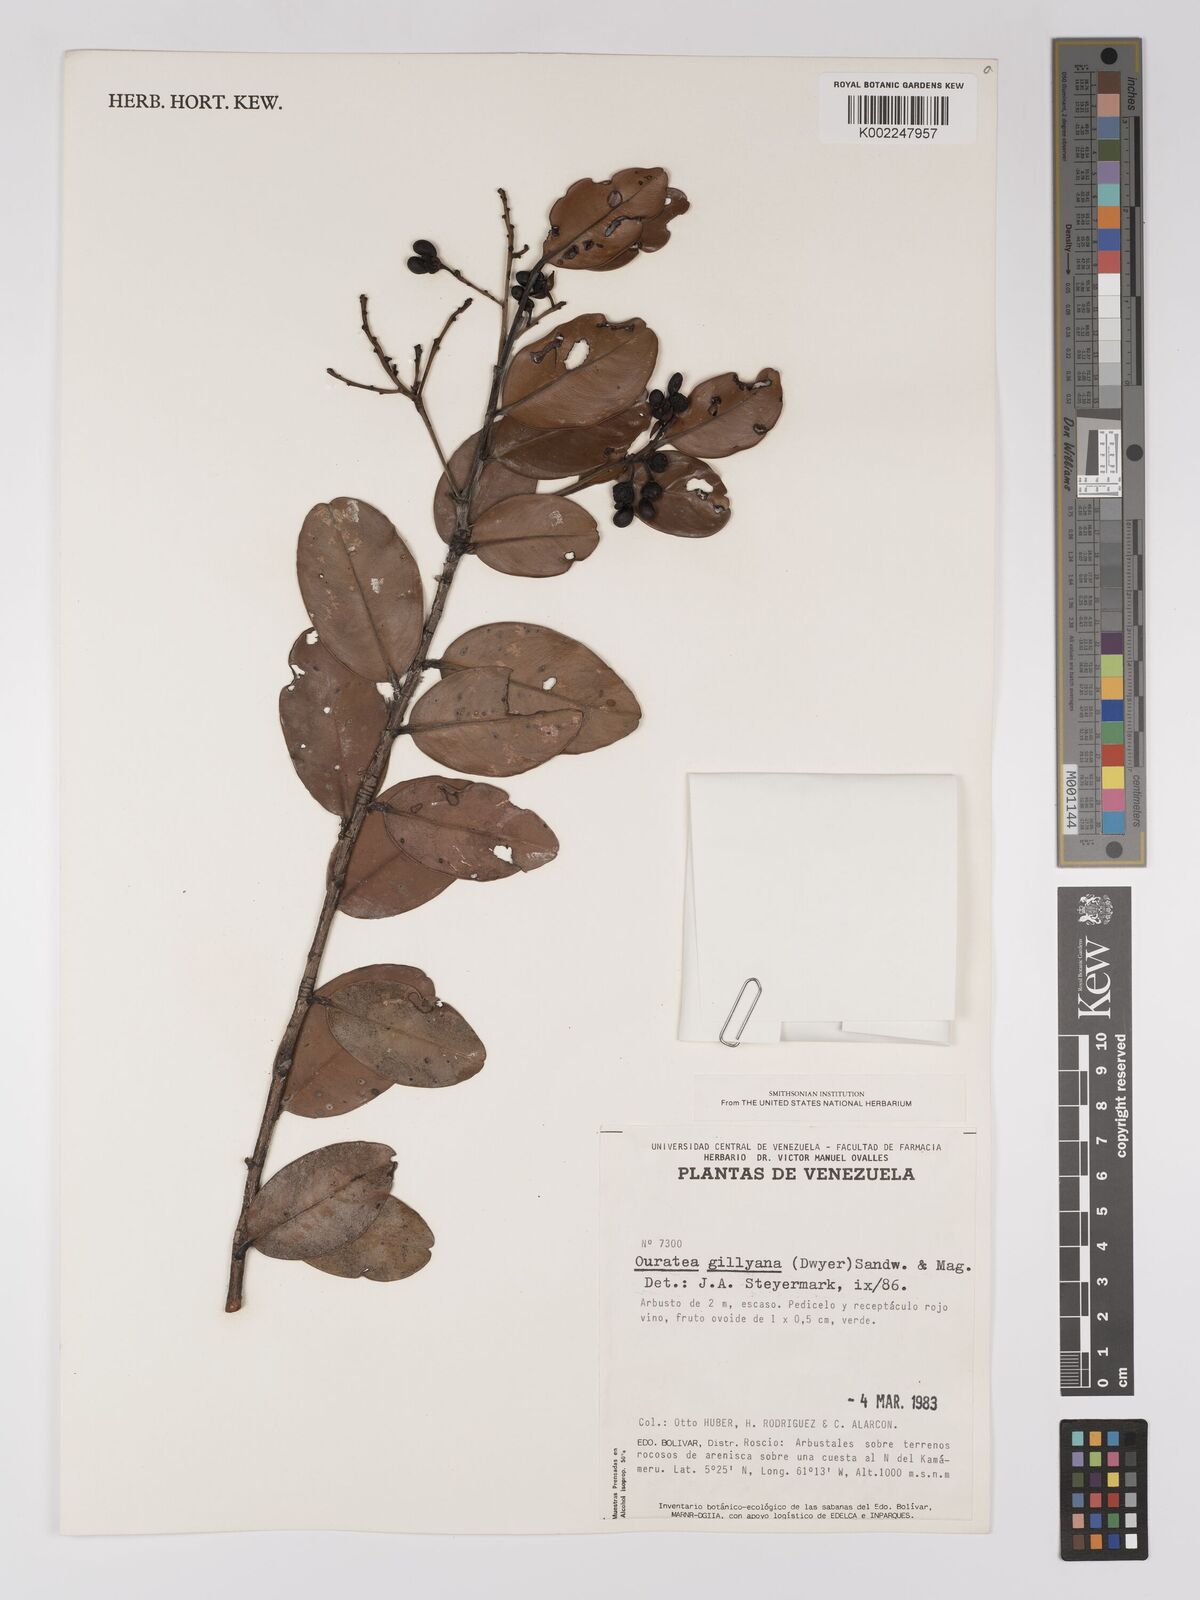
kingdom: Plantae
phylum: Tracheophyta
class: Magnoliopsida
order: Malpighiales
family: Ochnaceae
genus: Ouratea
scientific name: Ouratea gillyana
